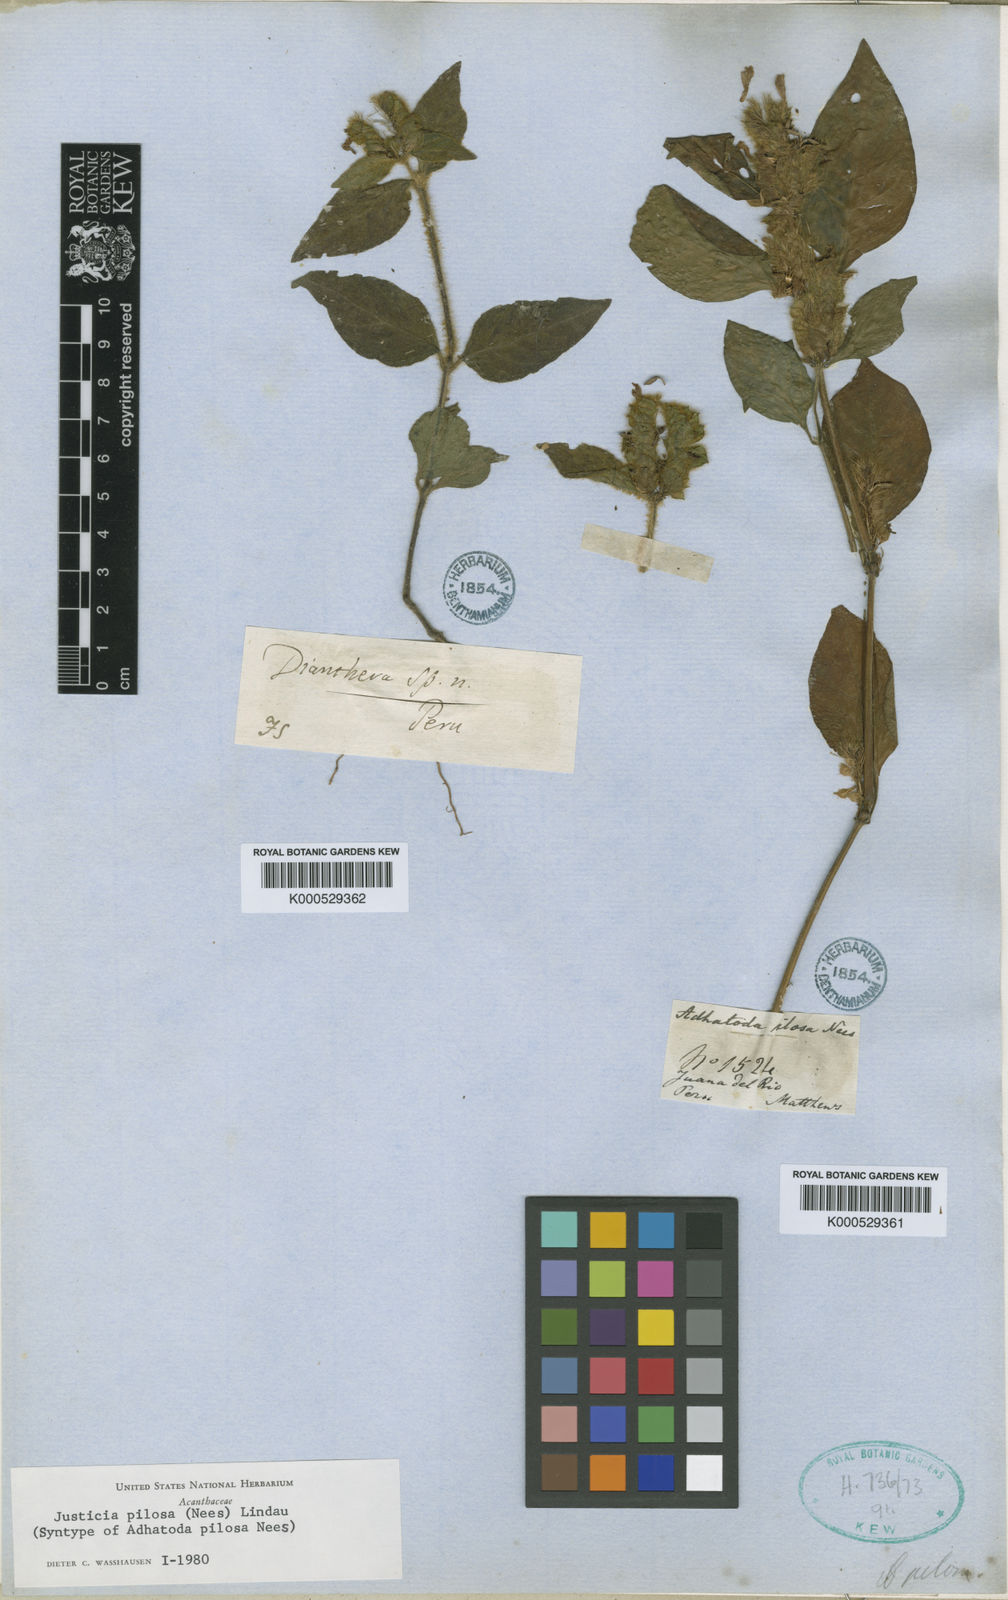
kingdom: Plantae
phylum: Tracheophyta
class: Magnoliopsida
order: Lamiales
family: Acanthaceae
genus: Justicia
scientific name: Justicia pilosa
